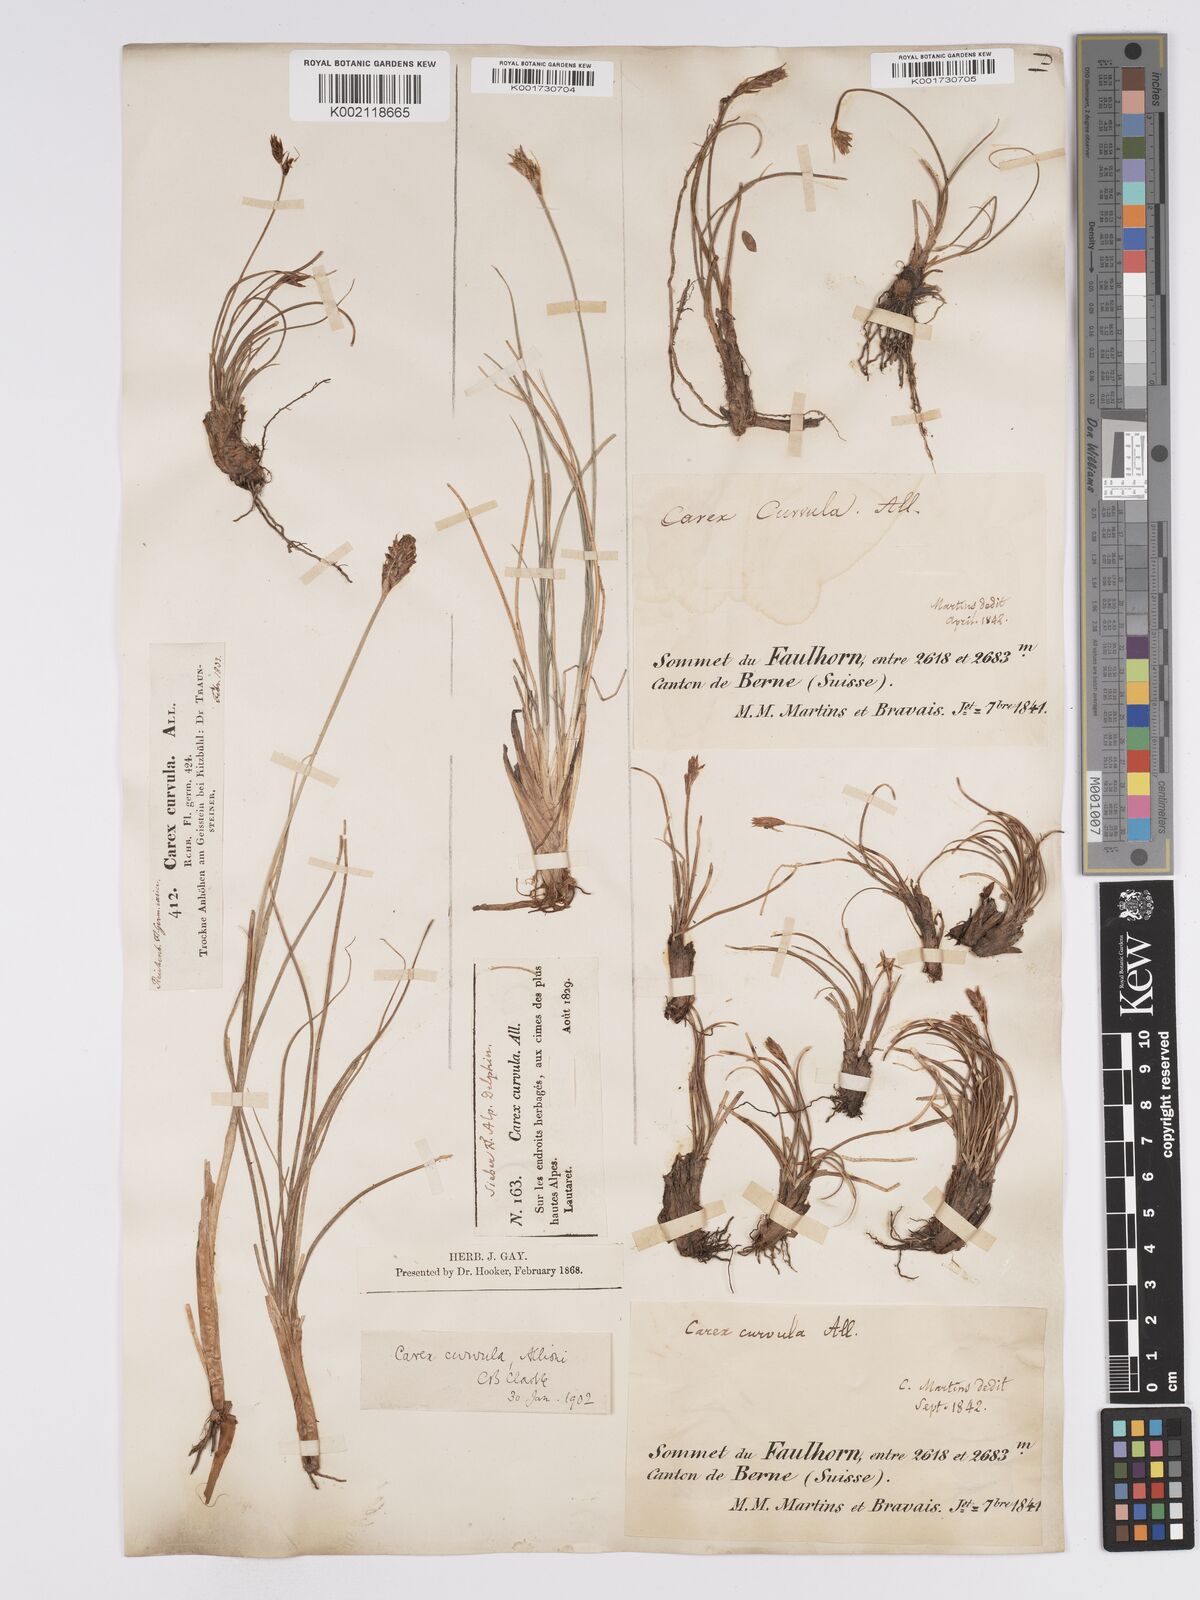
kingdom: Plantae
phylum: Tracheophyta
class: Liliopsida
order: Poales
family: Cyperaceae
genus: Carex
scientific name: Carex curvula
